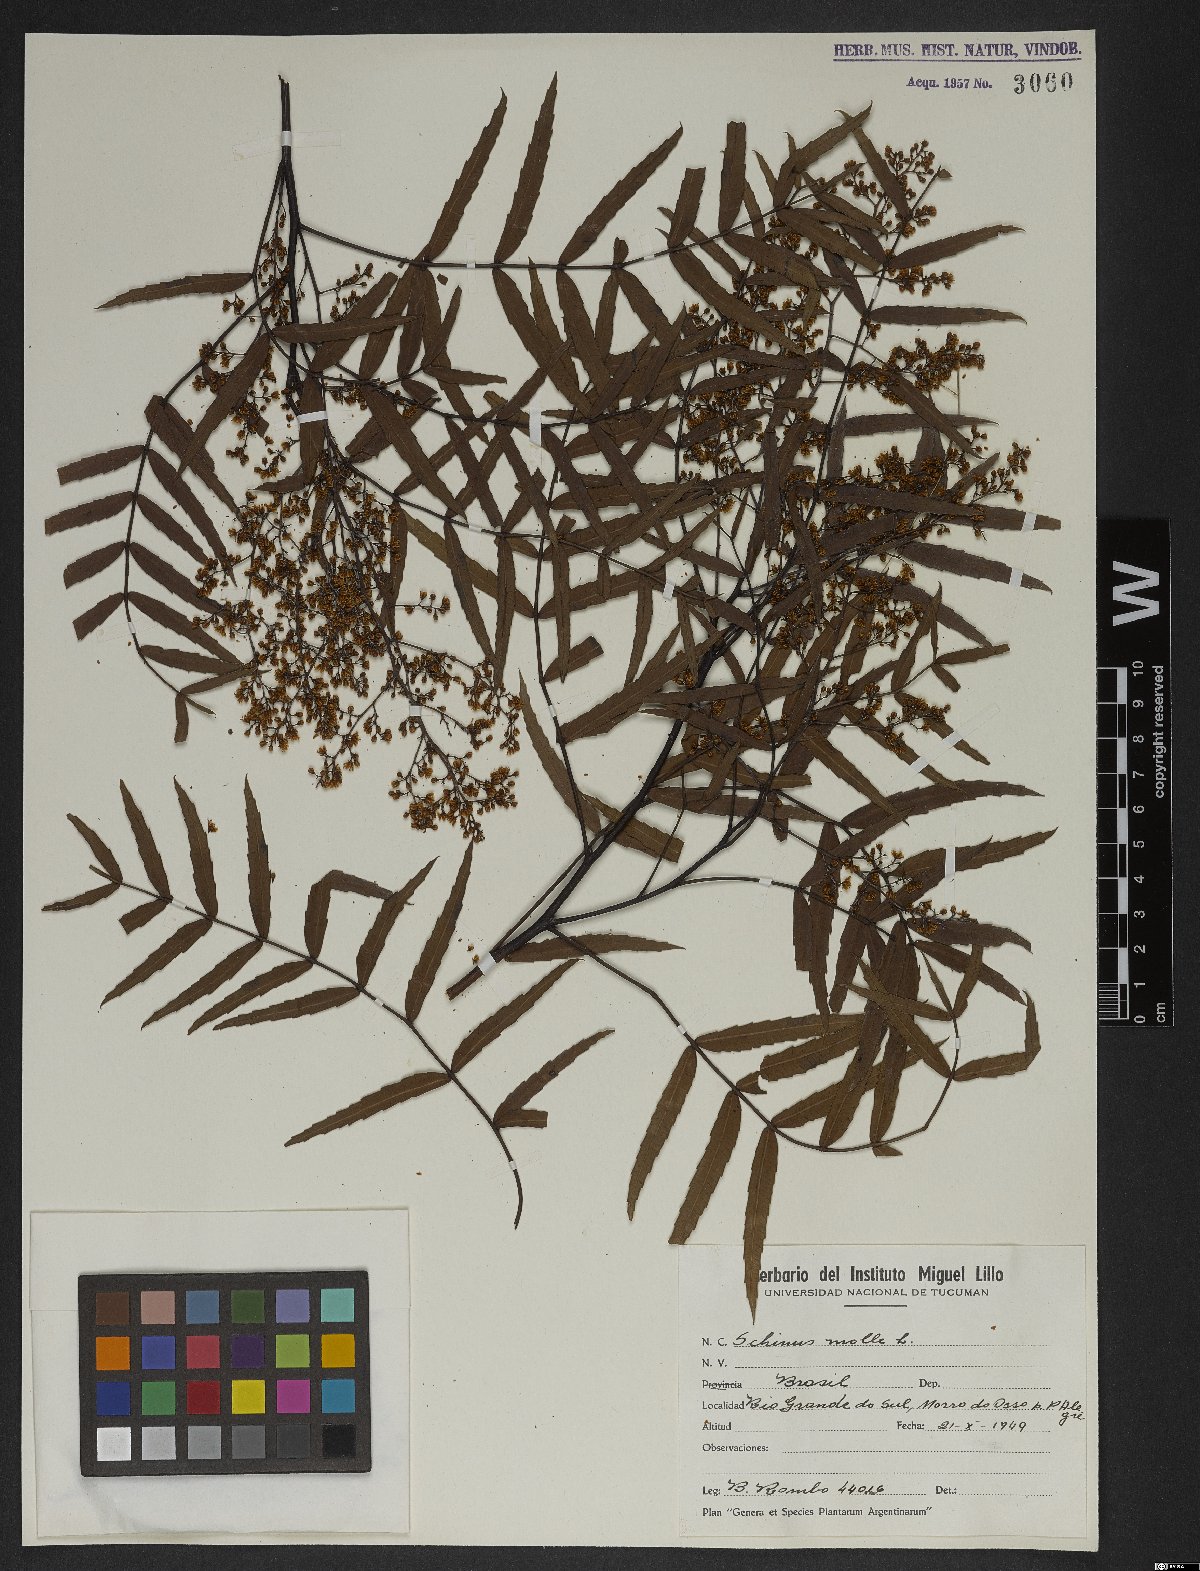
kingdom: Plantae
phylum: Tracheophyta
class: Magnoliopsida
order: Sapindales
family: Anacardiaceae
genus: Schinus
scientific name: Schinus molle
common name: Peruvian peppertree
